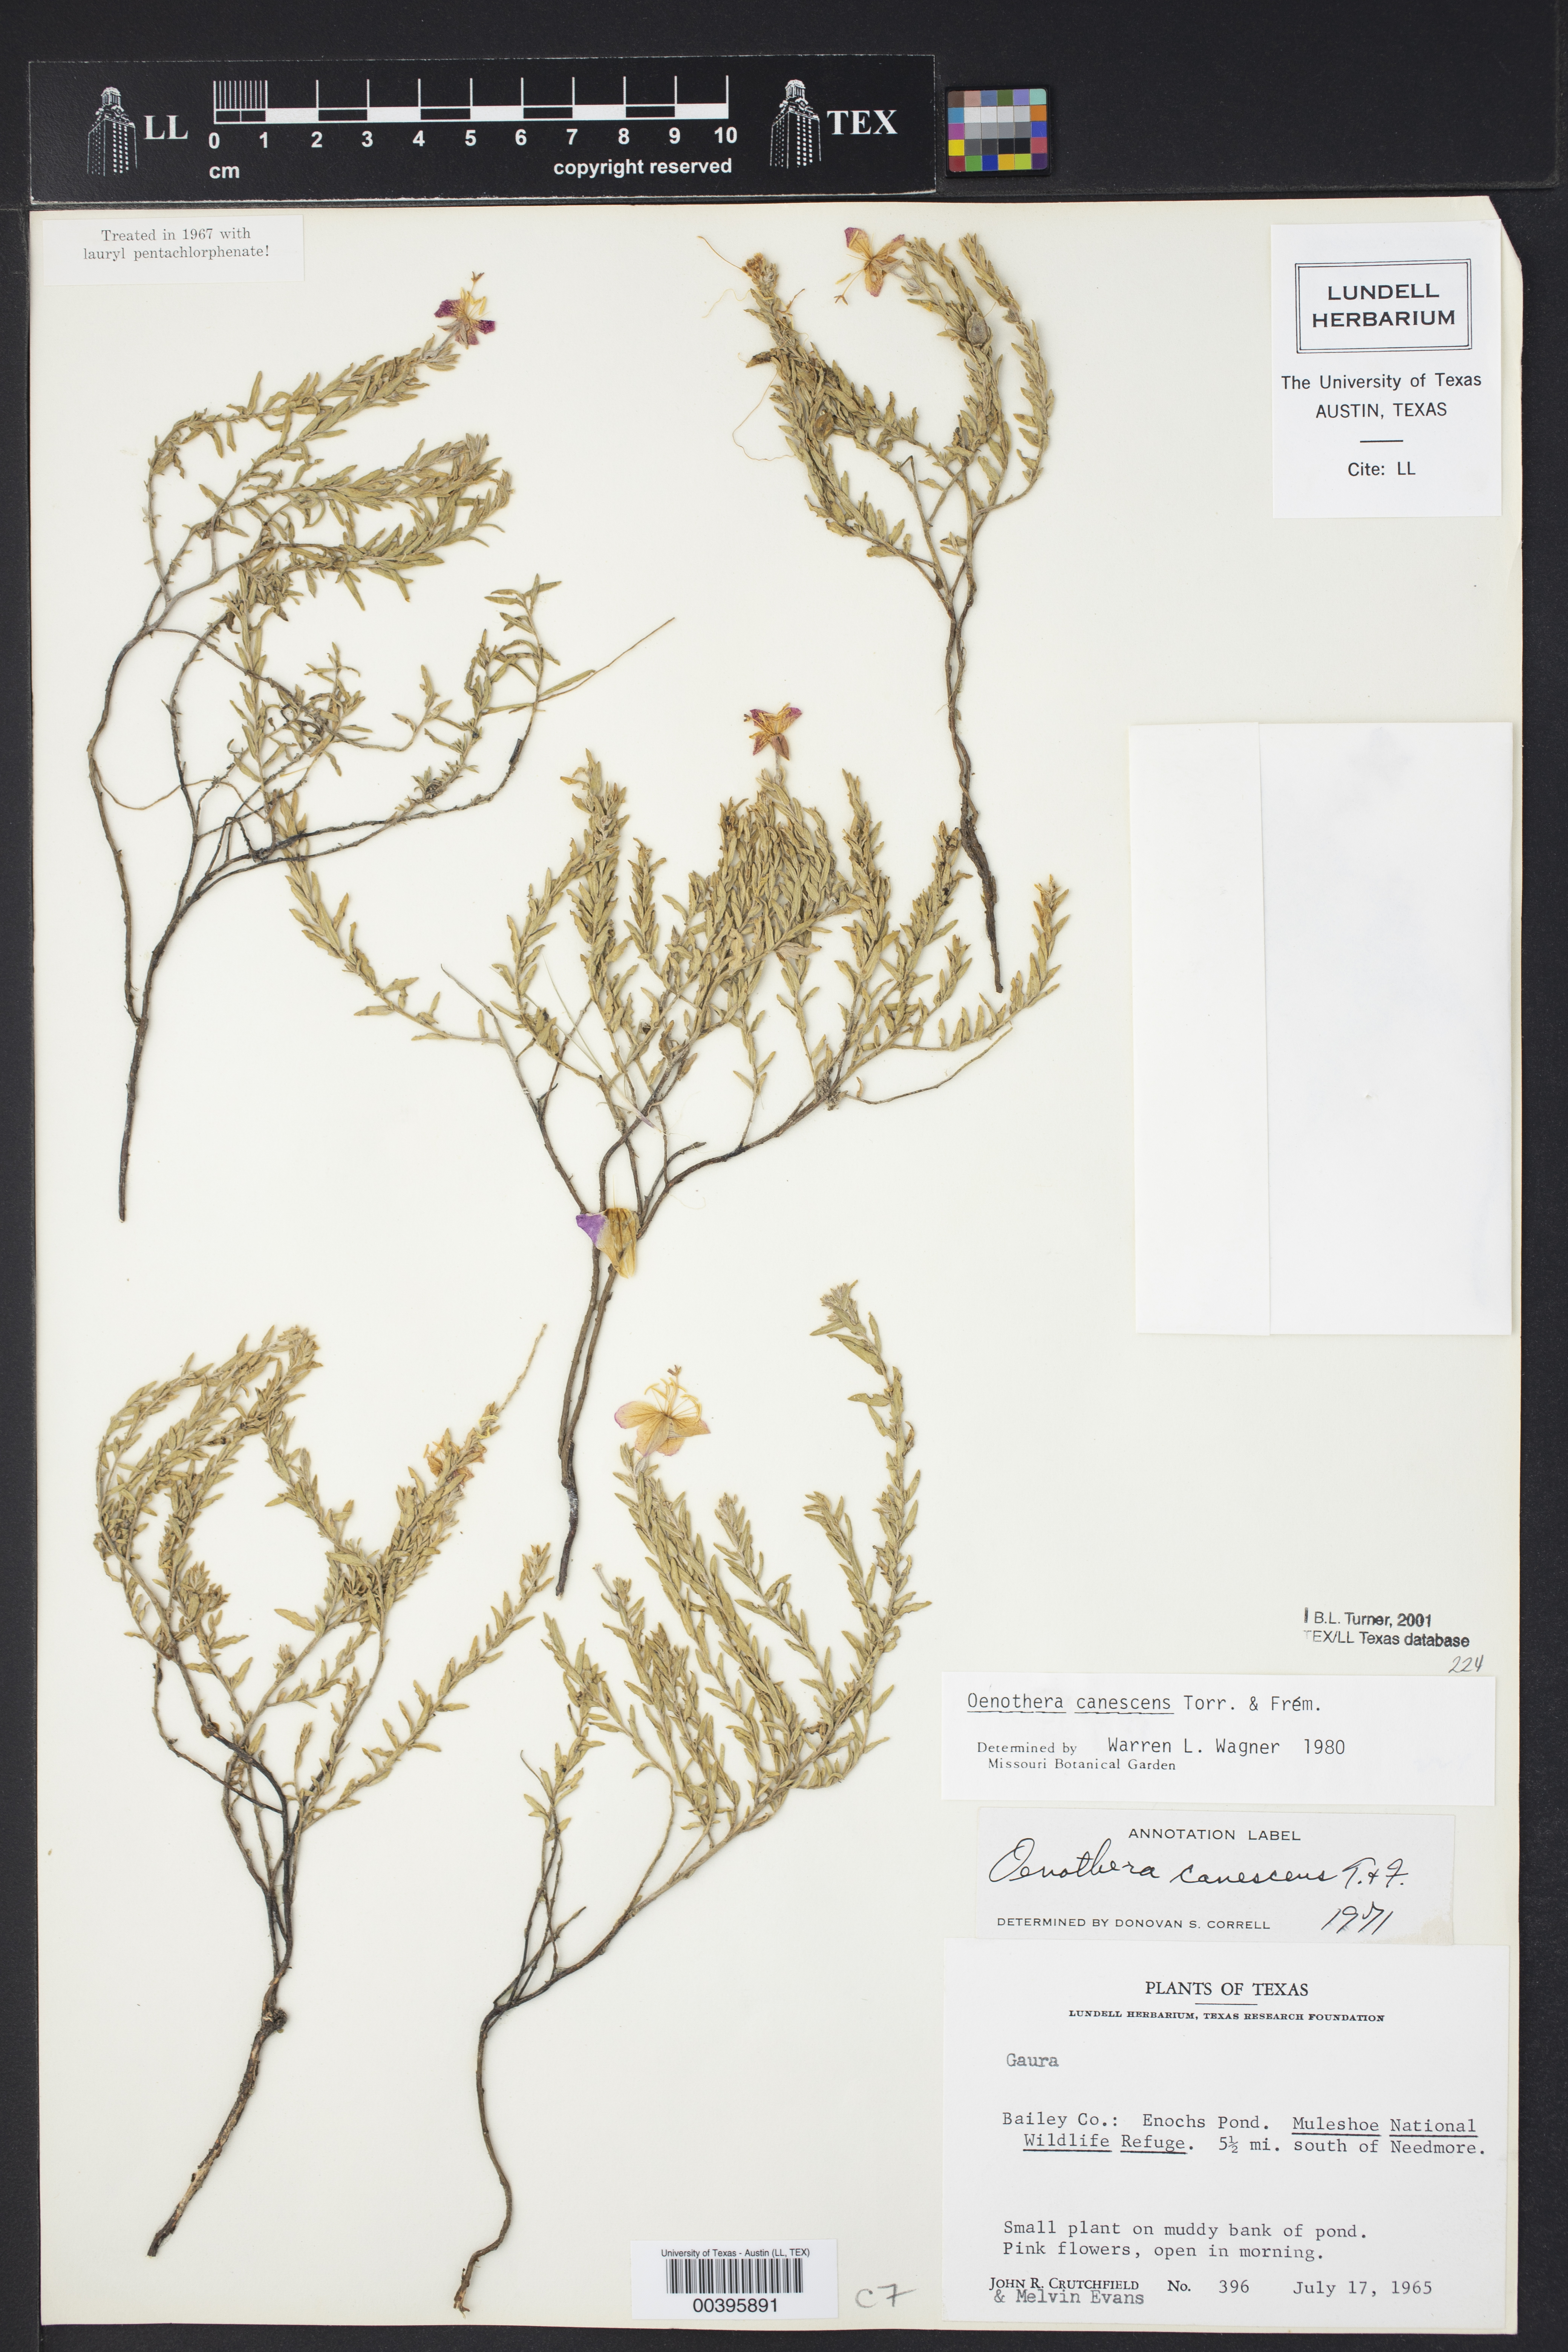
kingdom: Plantae
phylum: Tracheophyta
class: Magnoliopsida
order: Myrtales
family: Onagraceae
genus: Oenothera
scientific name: Oenothera canescens
